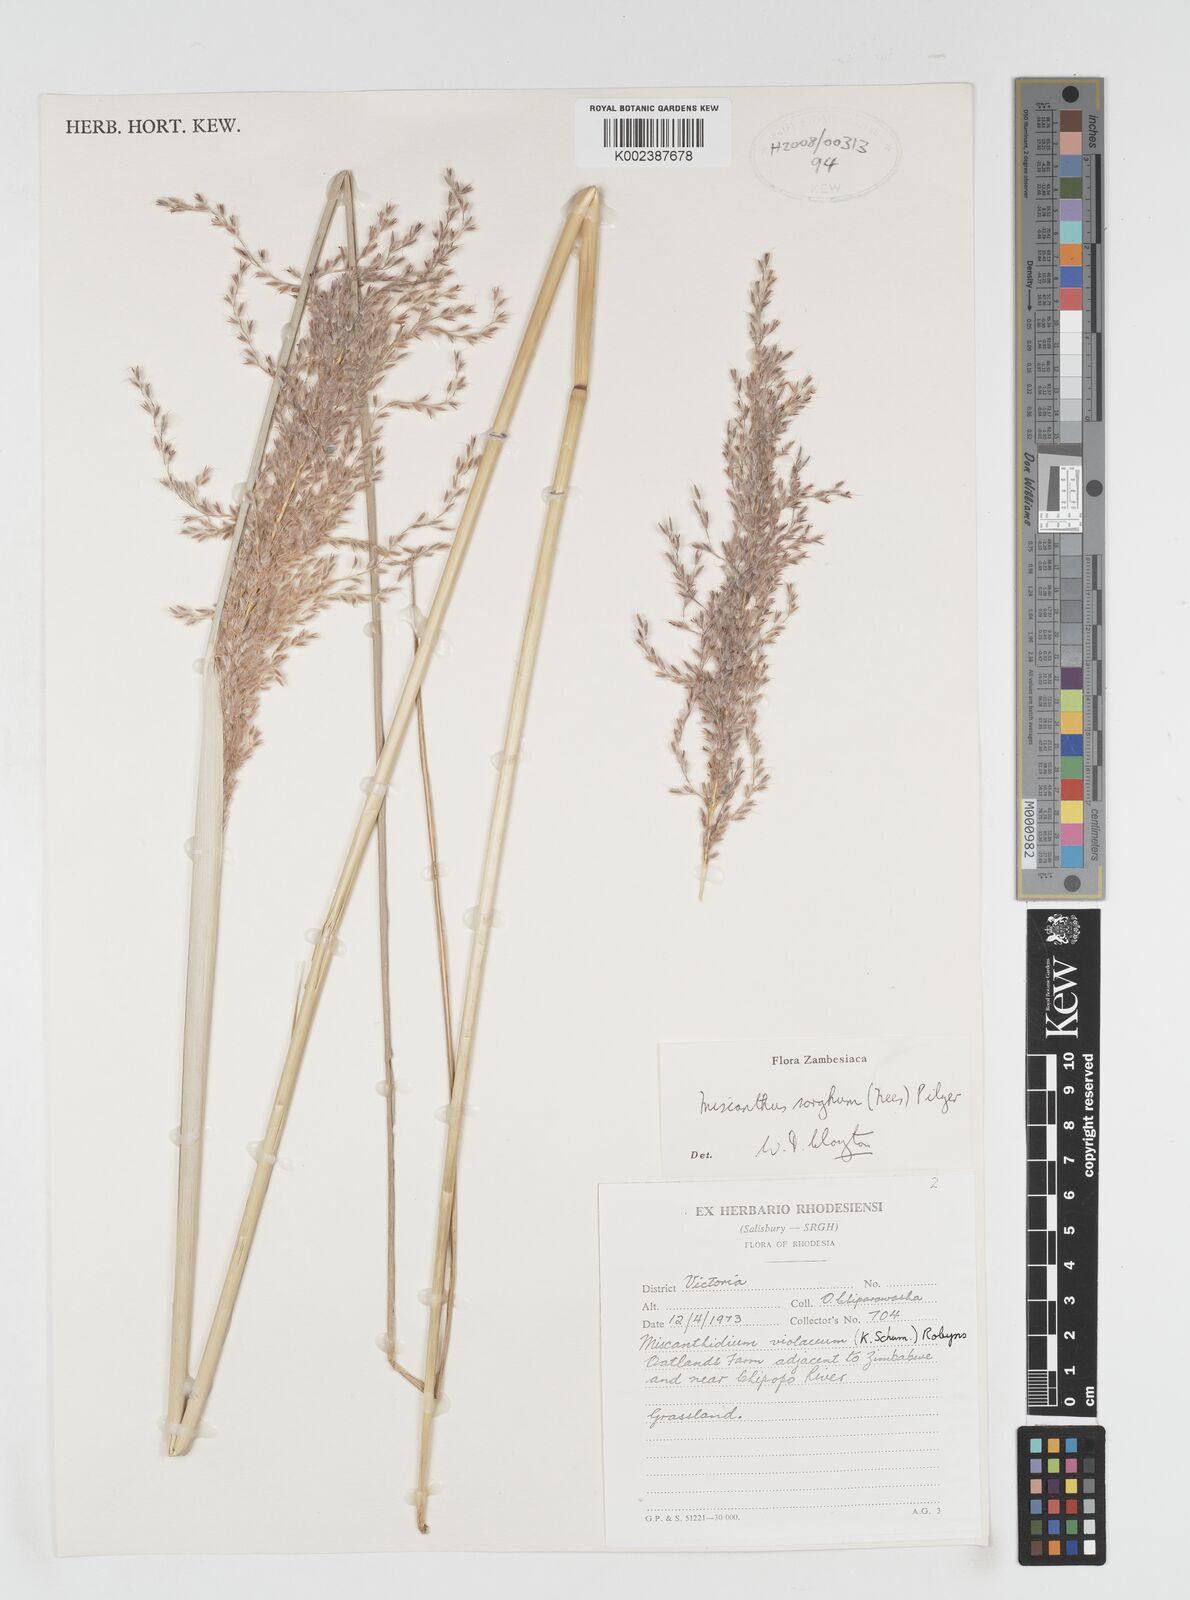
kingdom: Plantae
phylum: Tracheophyta
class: Liliopsida
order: Poales
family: Poaceae
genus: Miscanthus
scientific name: Miscanthus ecklonii
